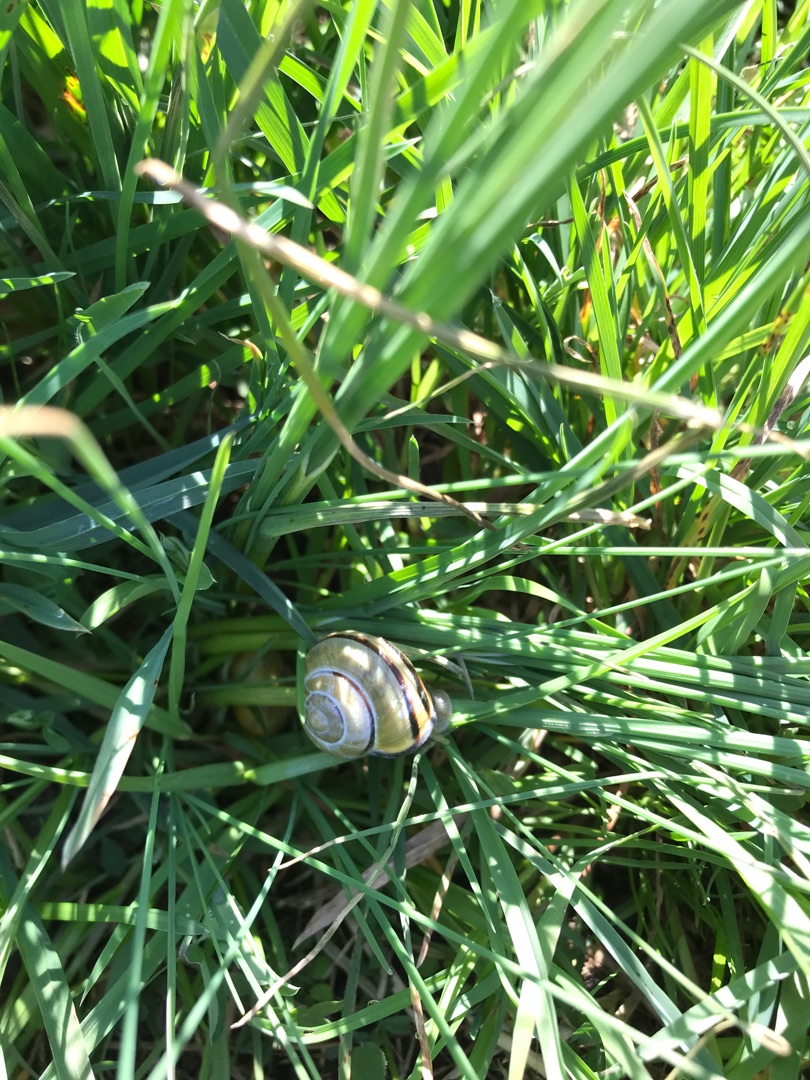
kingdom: Animalia
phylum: Mollusca
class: Gastropoda
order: Stylommatophora
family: Helicidae
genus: Cepaea
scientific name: Cepaea nemoralis
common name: Lundsnegl
